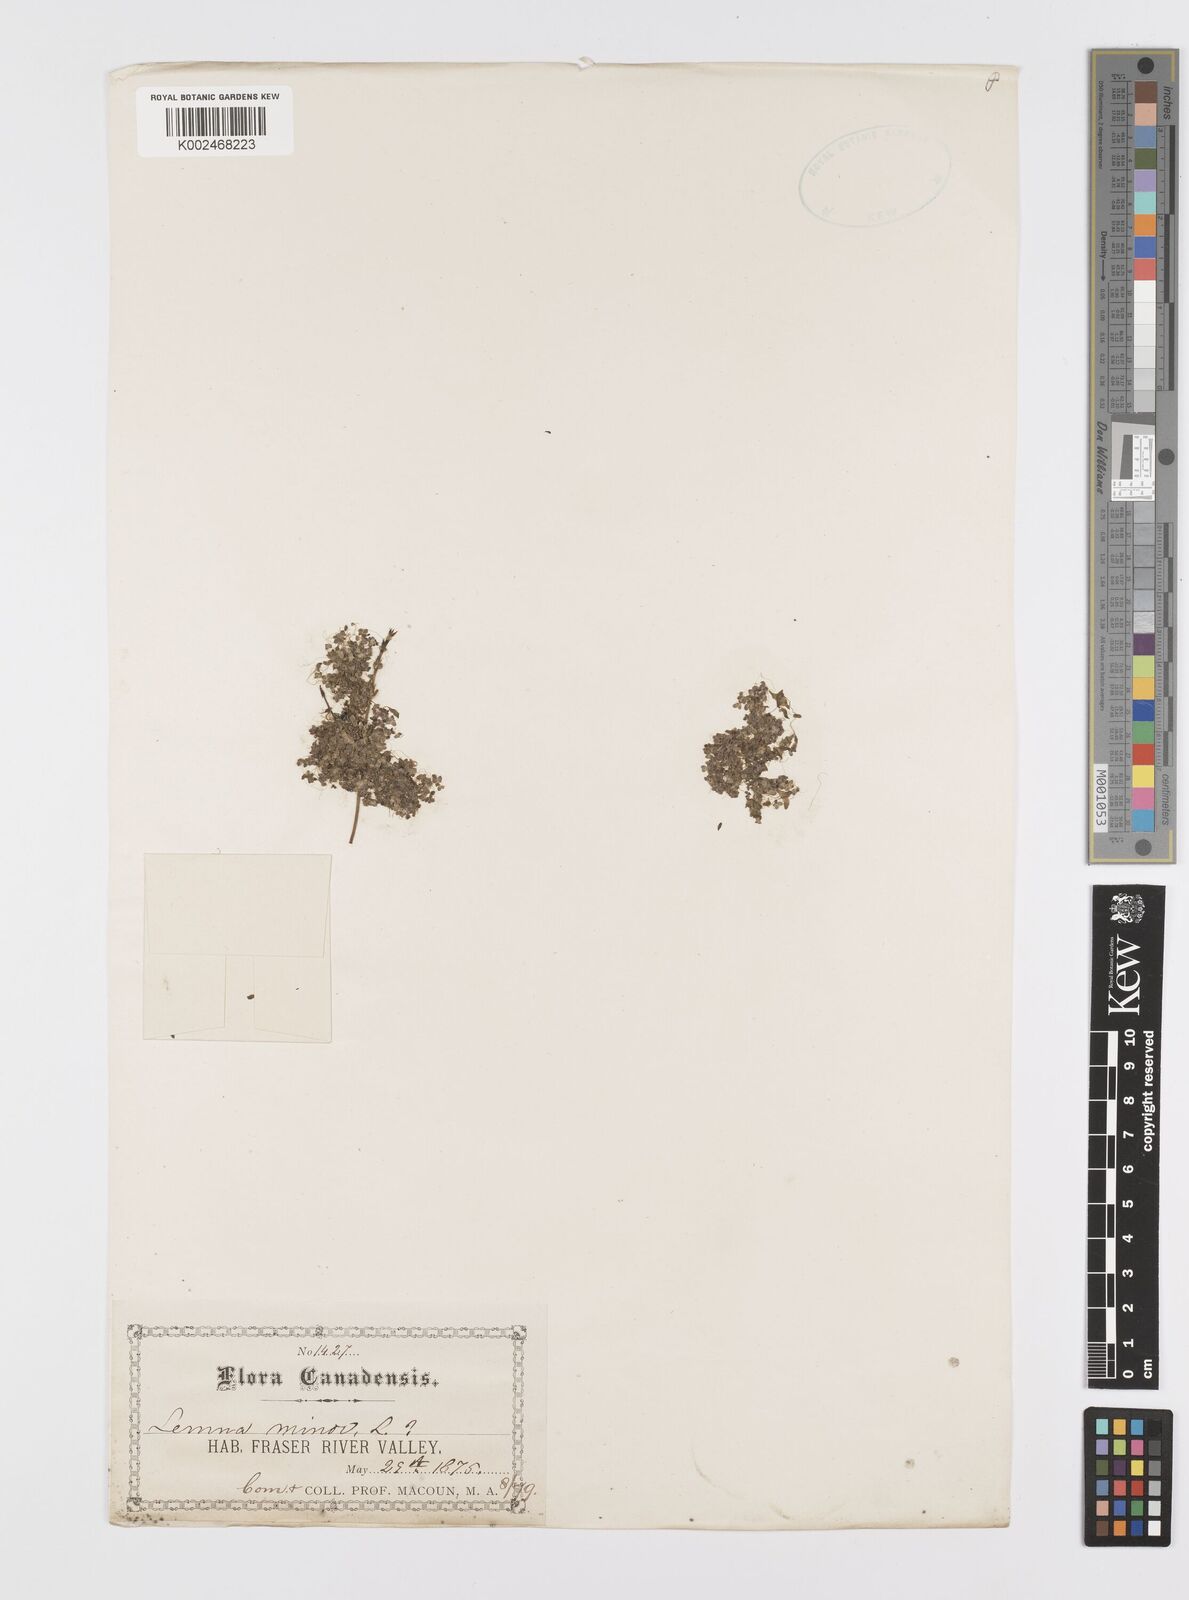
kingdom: Plantae
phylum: Tracheophyta
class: Liliopsida
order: Alismatales
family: Araceae
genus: Lemna
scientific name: Lemna minor
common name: Common duckweed
